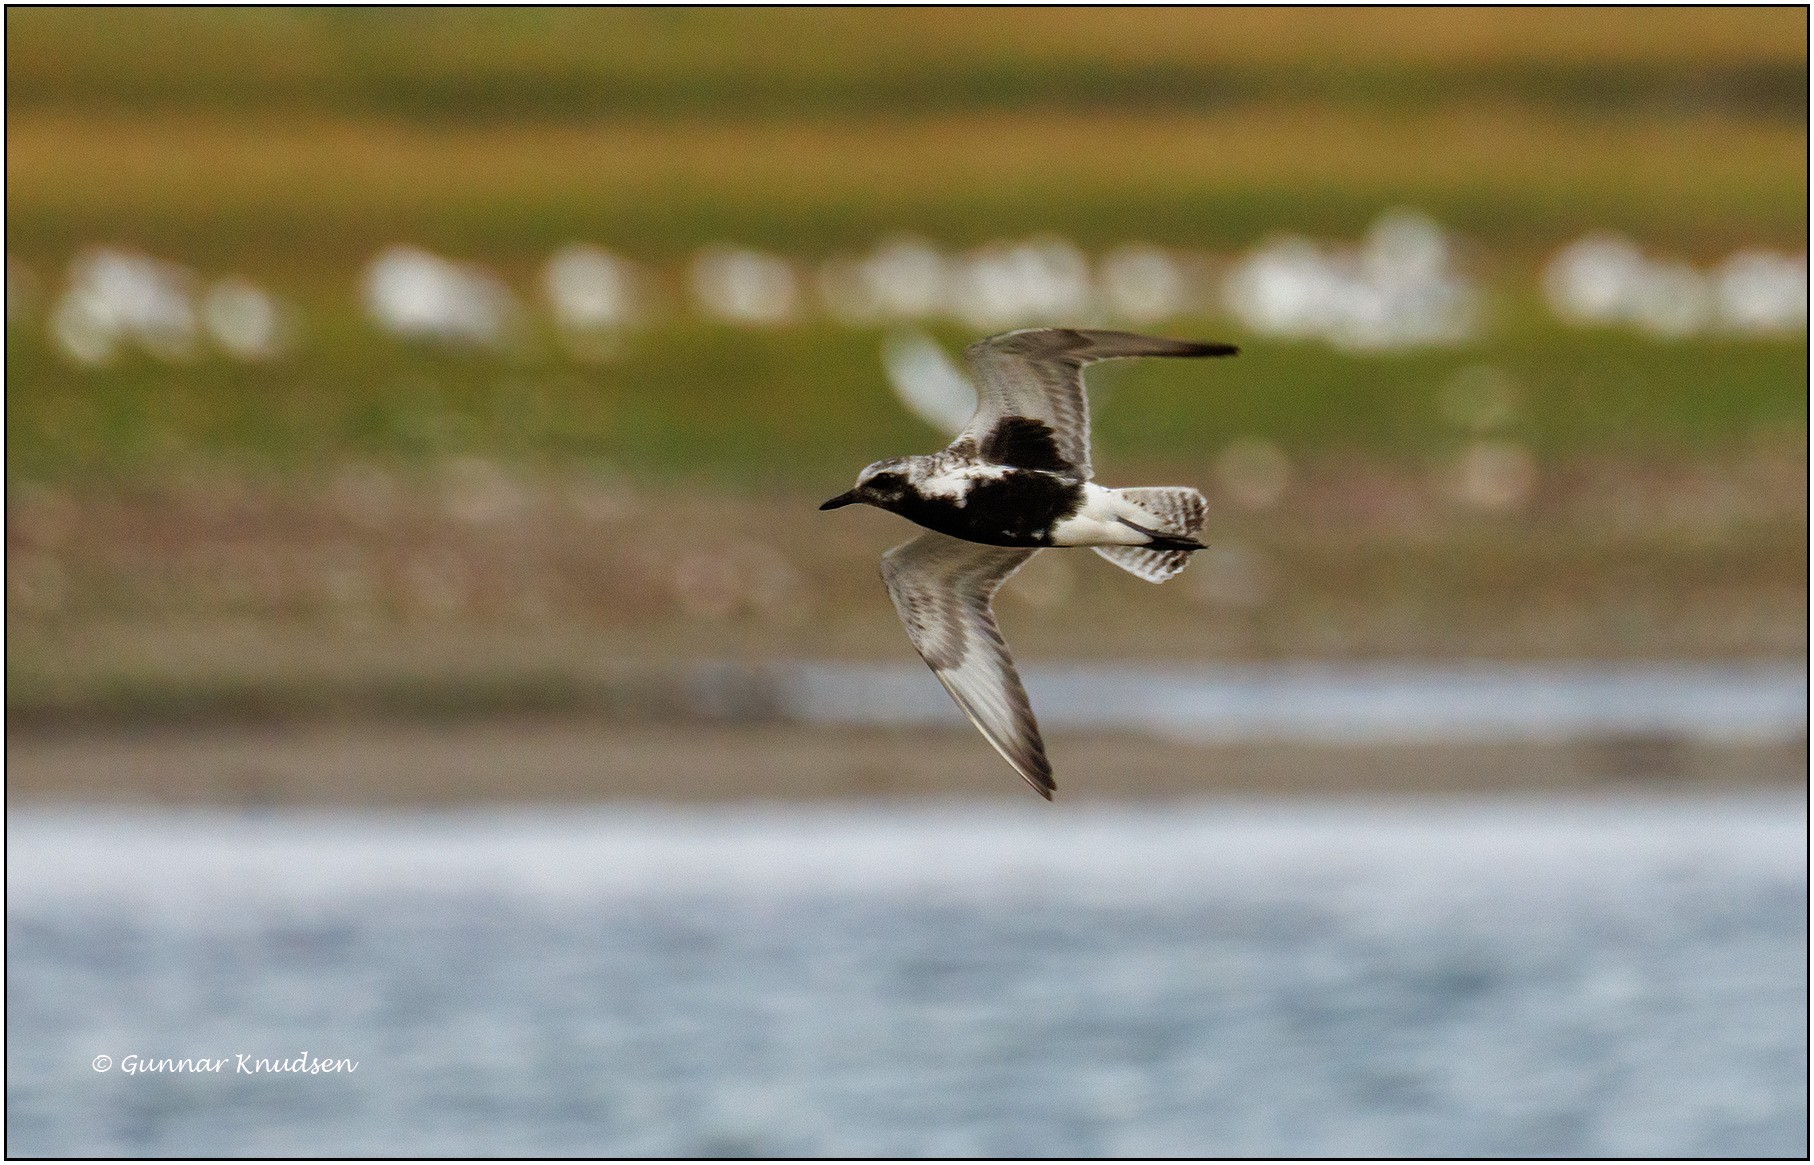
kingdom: Animalia
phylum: Chordata
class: Aves
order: Charadriiformes
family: Charadriidae
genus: Pluvialis
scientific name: Pluvialis squatarola
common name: Strandhjejle
